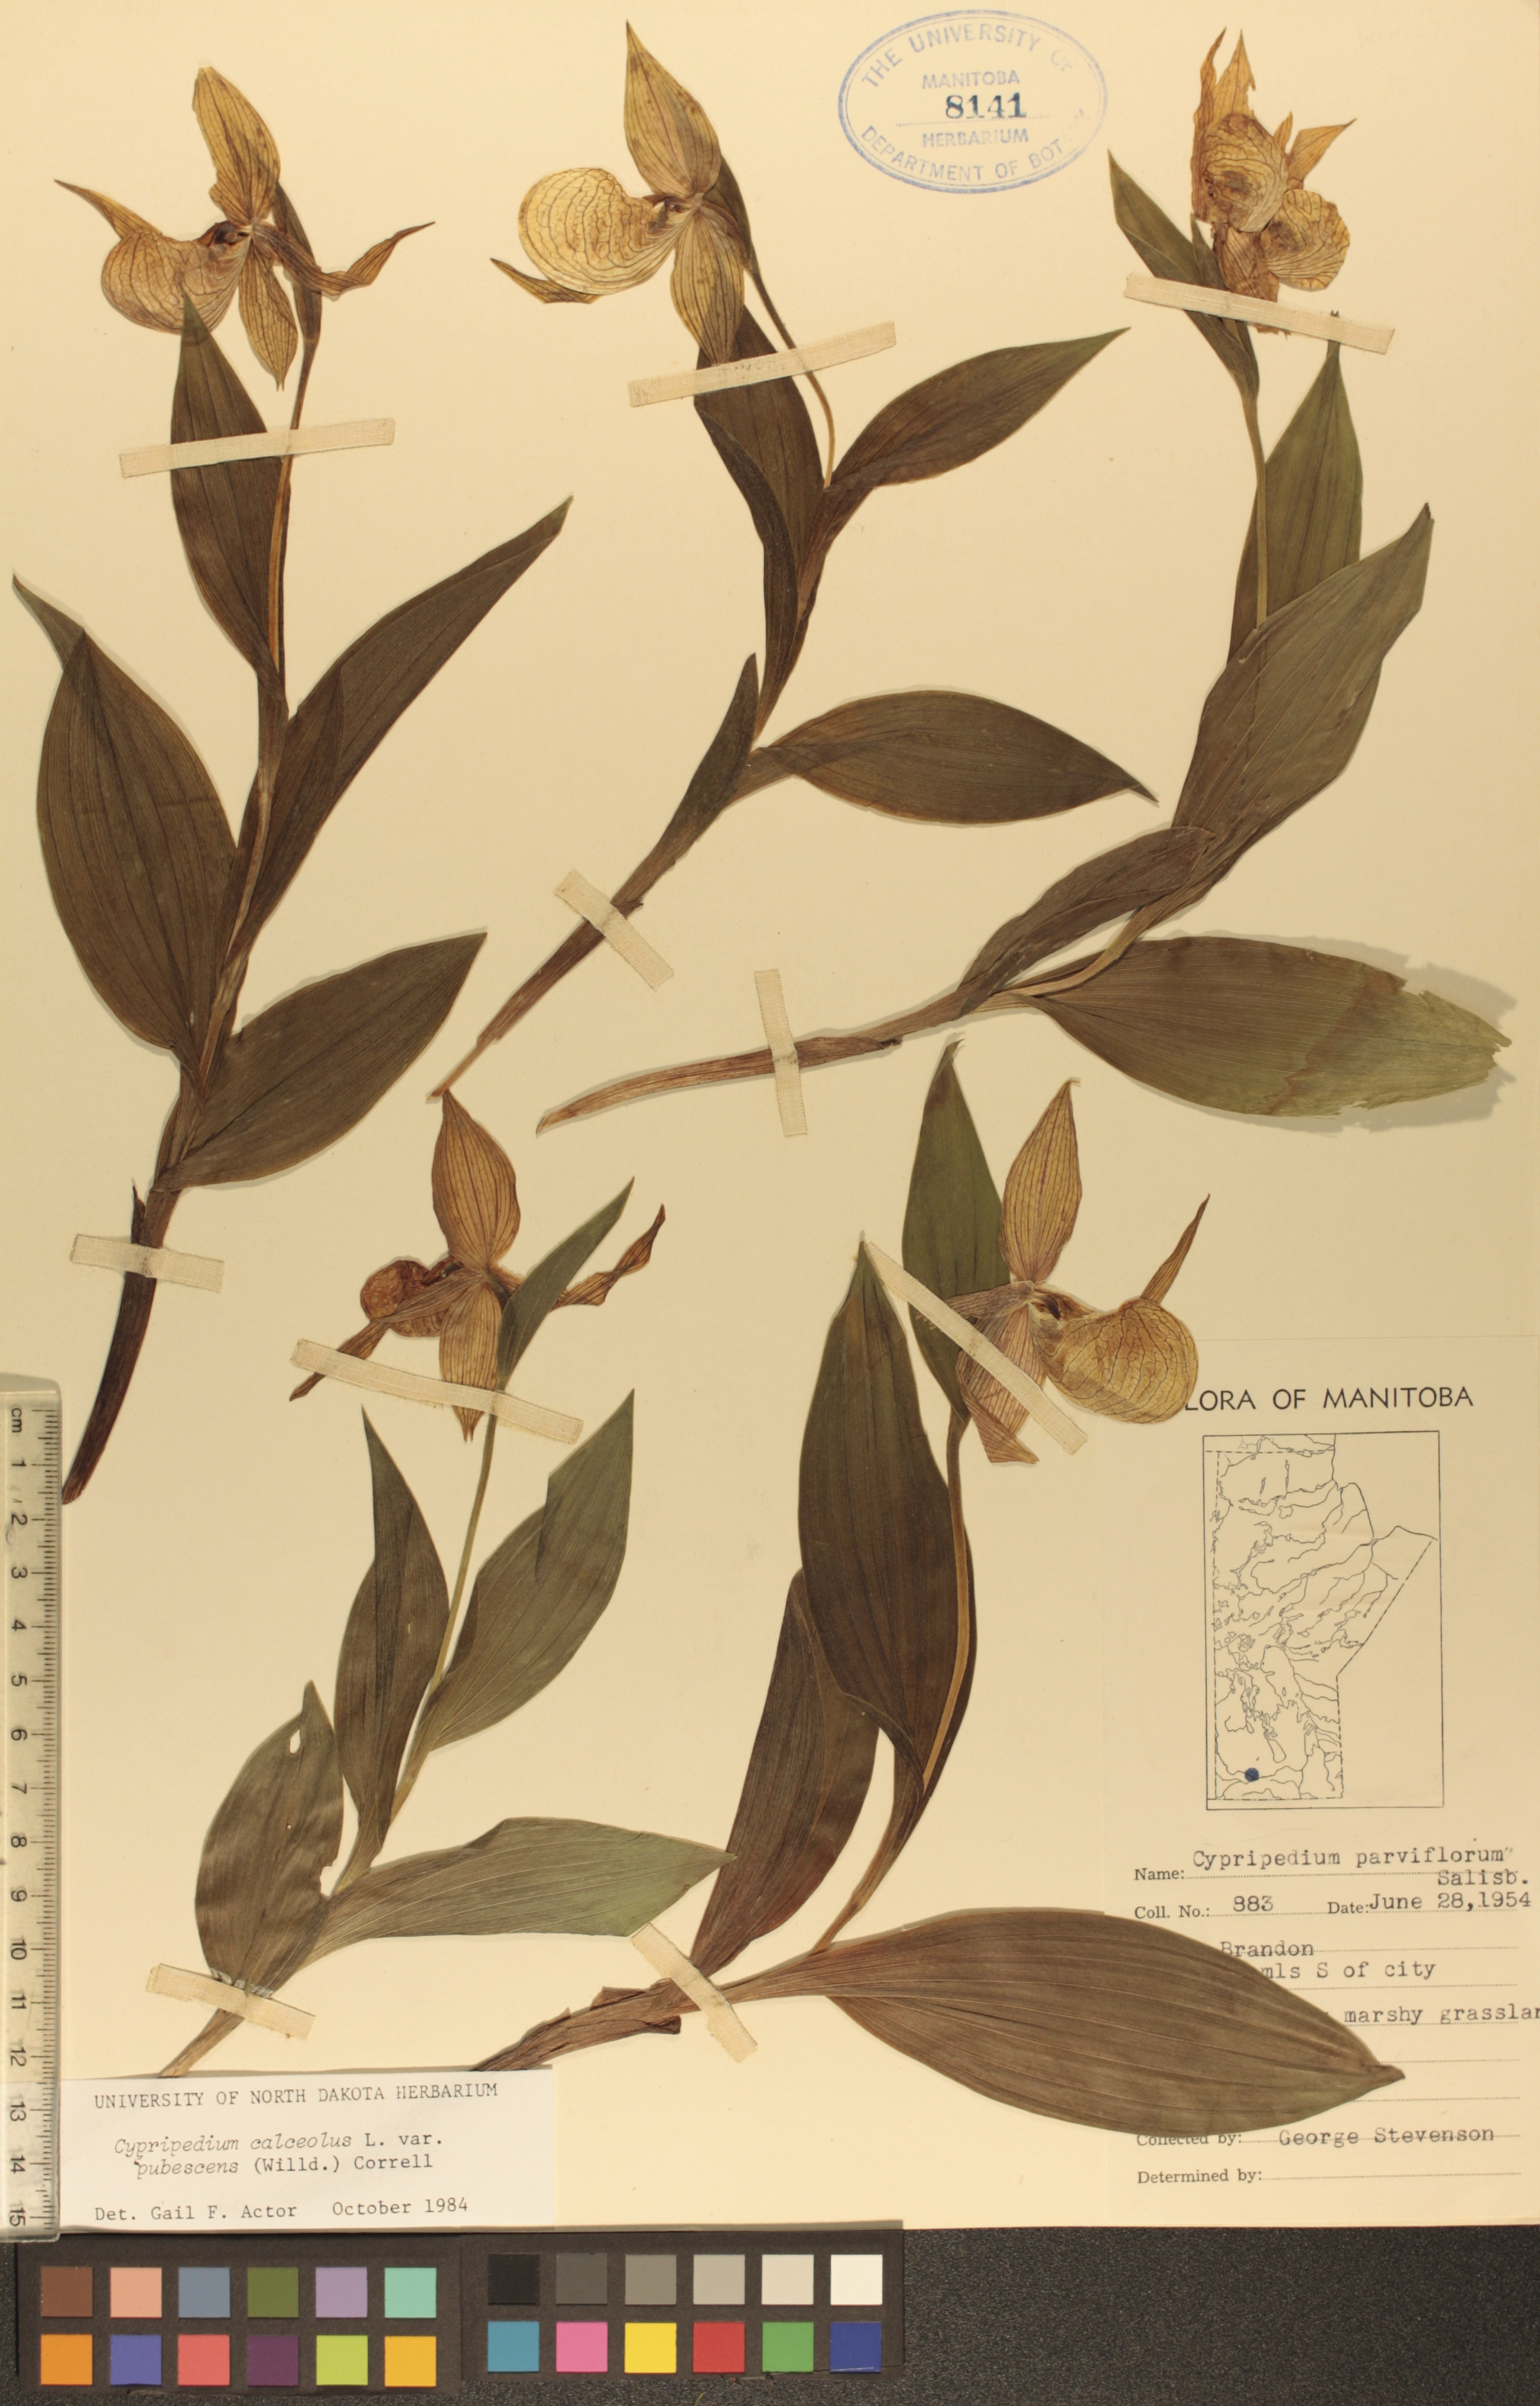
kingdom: Plantae
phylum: Tracheophyta
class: Liliopsida
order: Asparagales
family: Orchidaceae
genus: Cypripedium
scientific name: Cypripedium parviflorum
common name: American yellow lady's-slipper
